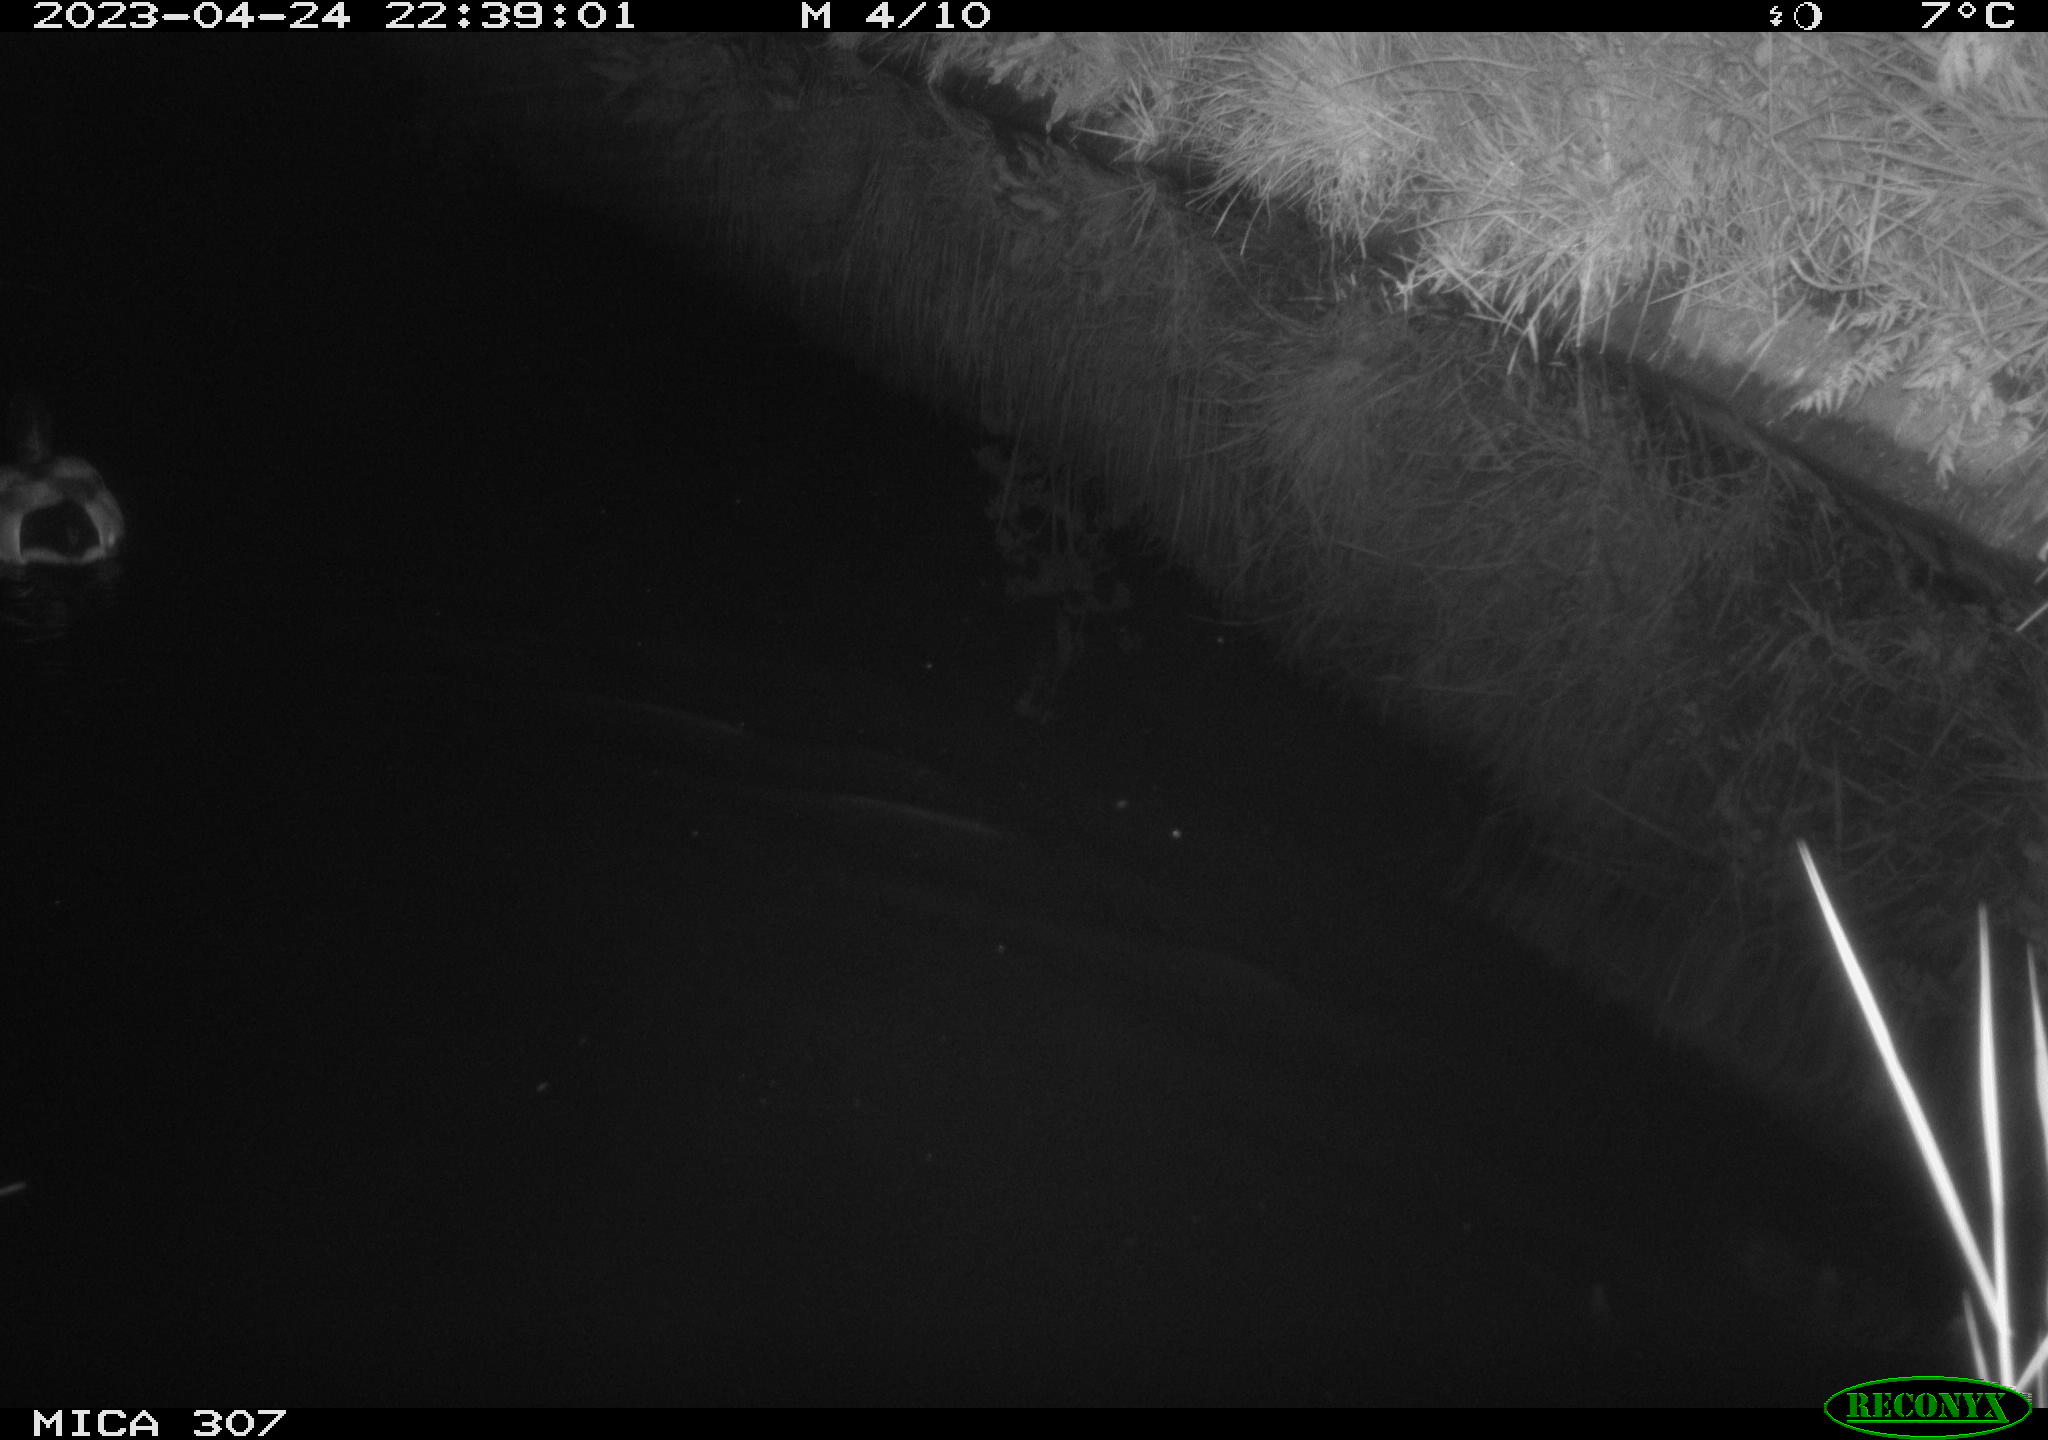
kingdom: Animalia
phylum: Chordata
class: Aves
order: Anseriformes
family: Anatidae
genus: Anas
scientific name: Anas
